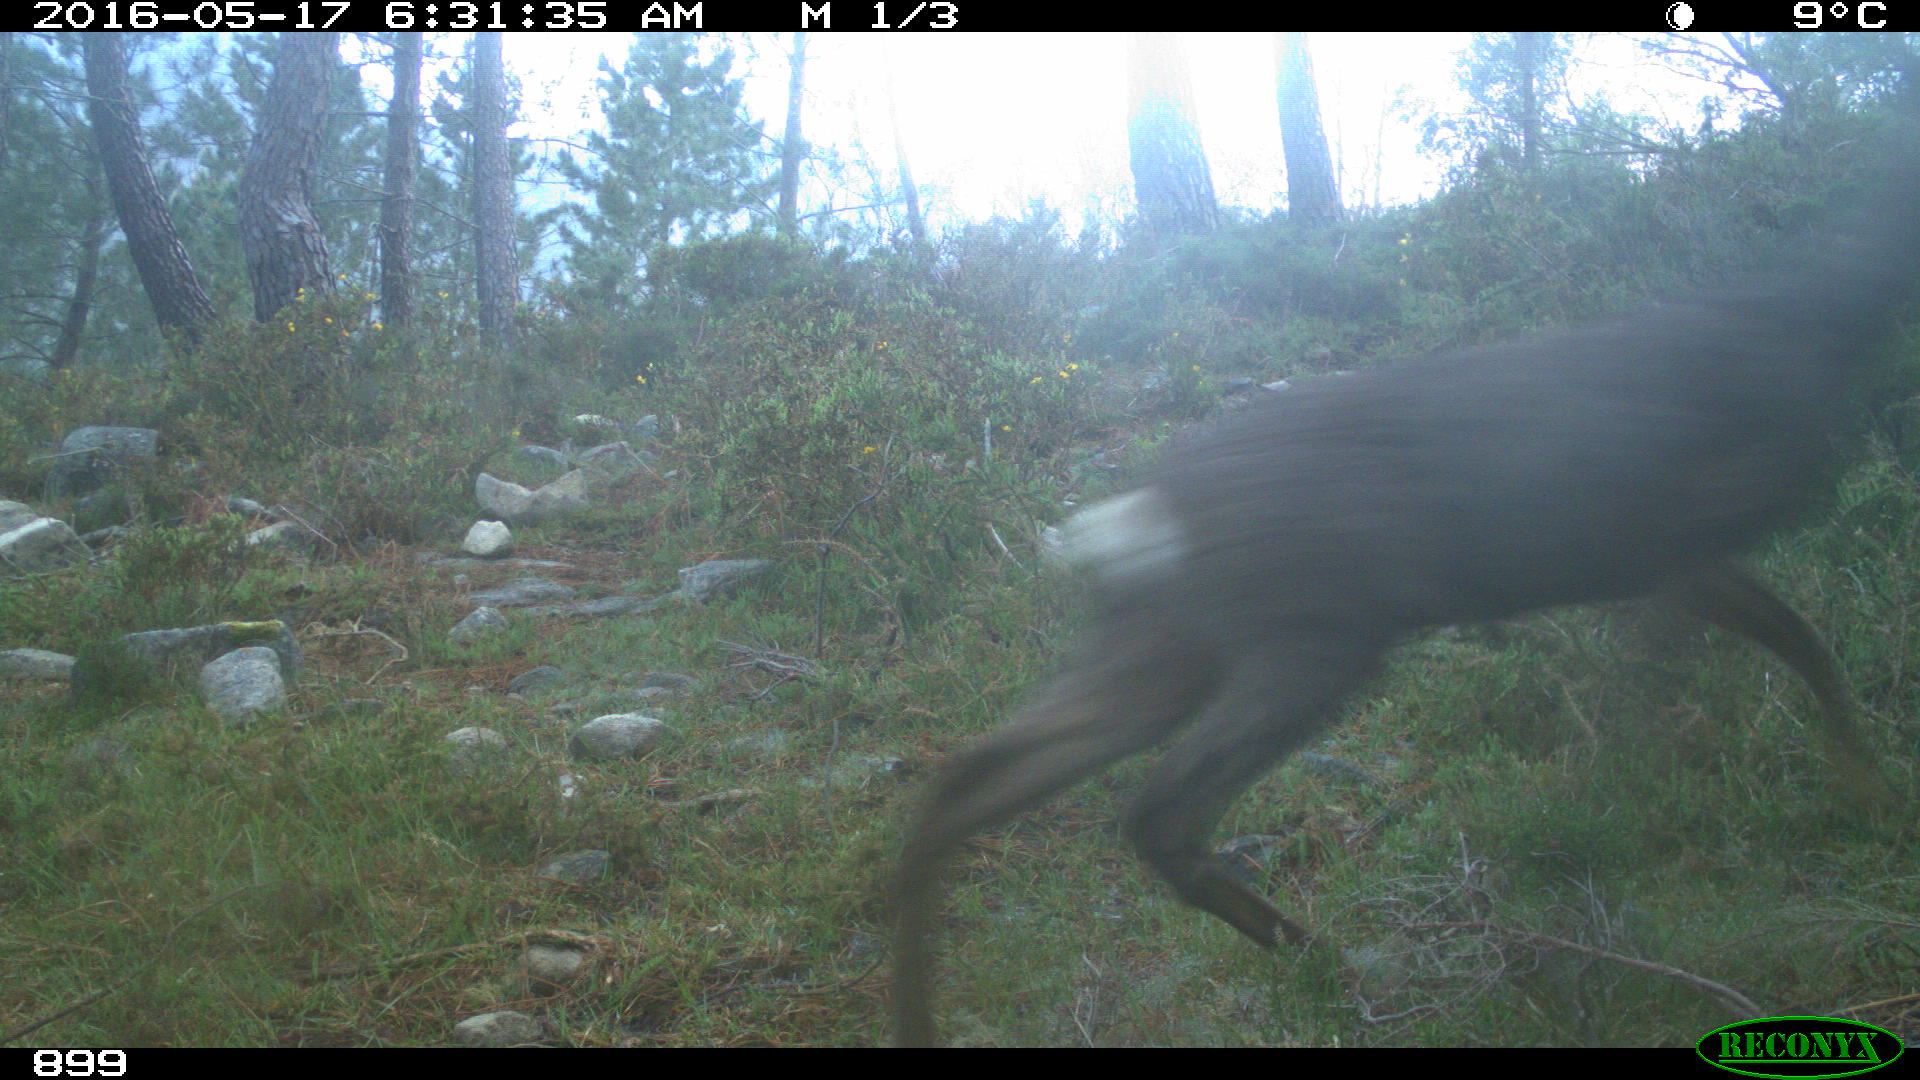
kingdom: Animalia
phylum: Chordata
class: Mammalia
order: Artiodactyla
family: Cervidae
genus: Capreolus
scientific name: Capreolus capreolus
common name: Western roe deer
